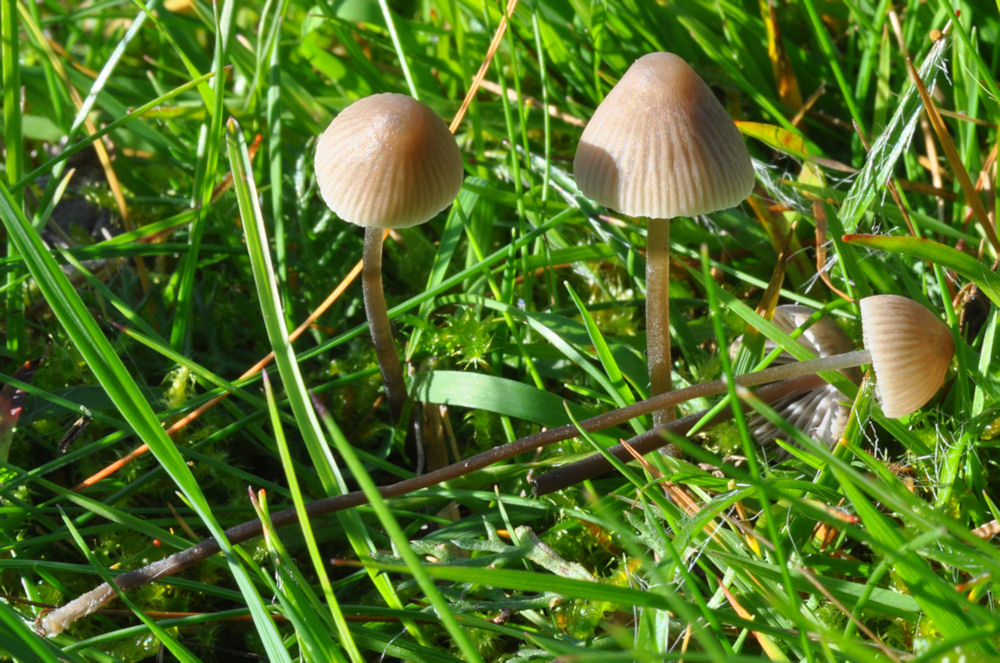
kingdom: Fungi
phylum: Basidiomycota
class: Agaricomycetes
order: Agaricales
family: Mycenaceae
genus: Mycena
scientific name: Mycena leptocephala
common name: klor-huesvamp
